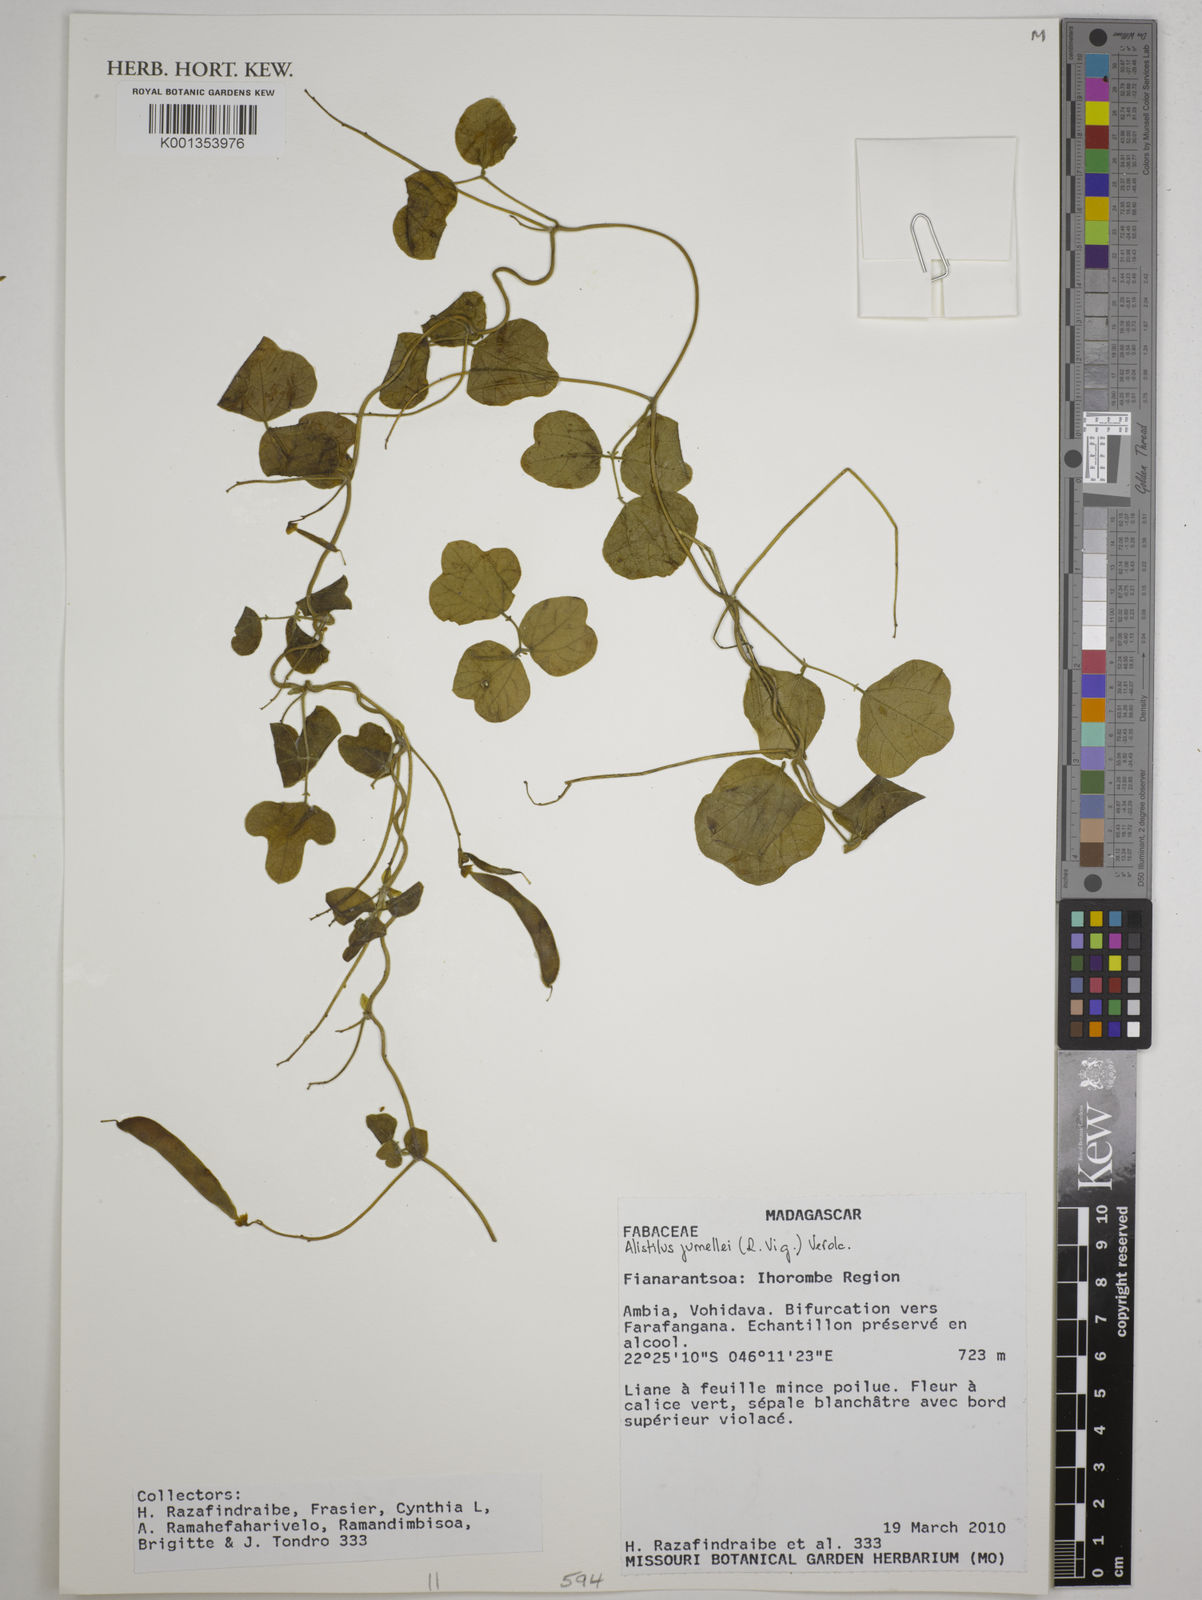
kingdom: Plantae
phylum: Tracheophyta
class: Magnoliopsida
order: Fabales
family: Fabaceae
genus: Alistilus
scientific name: Alistilus jumellei
